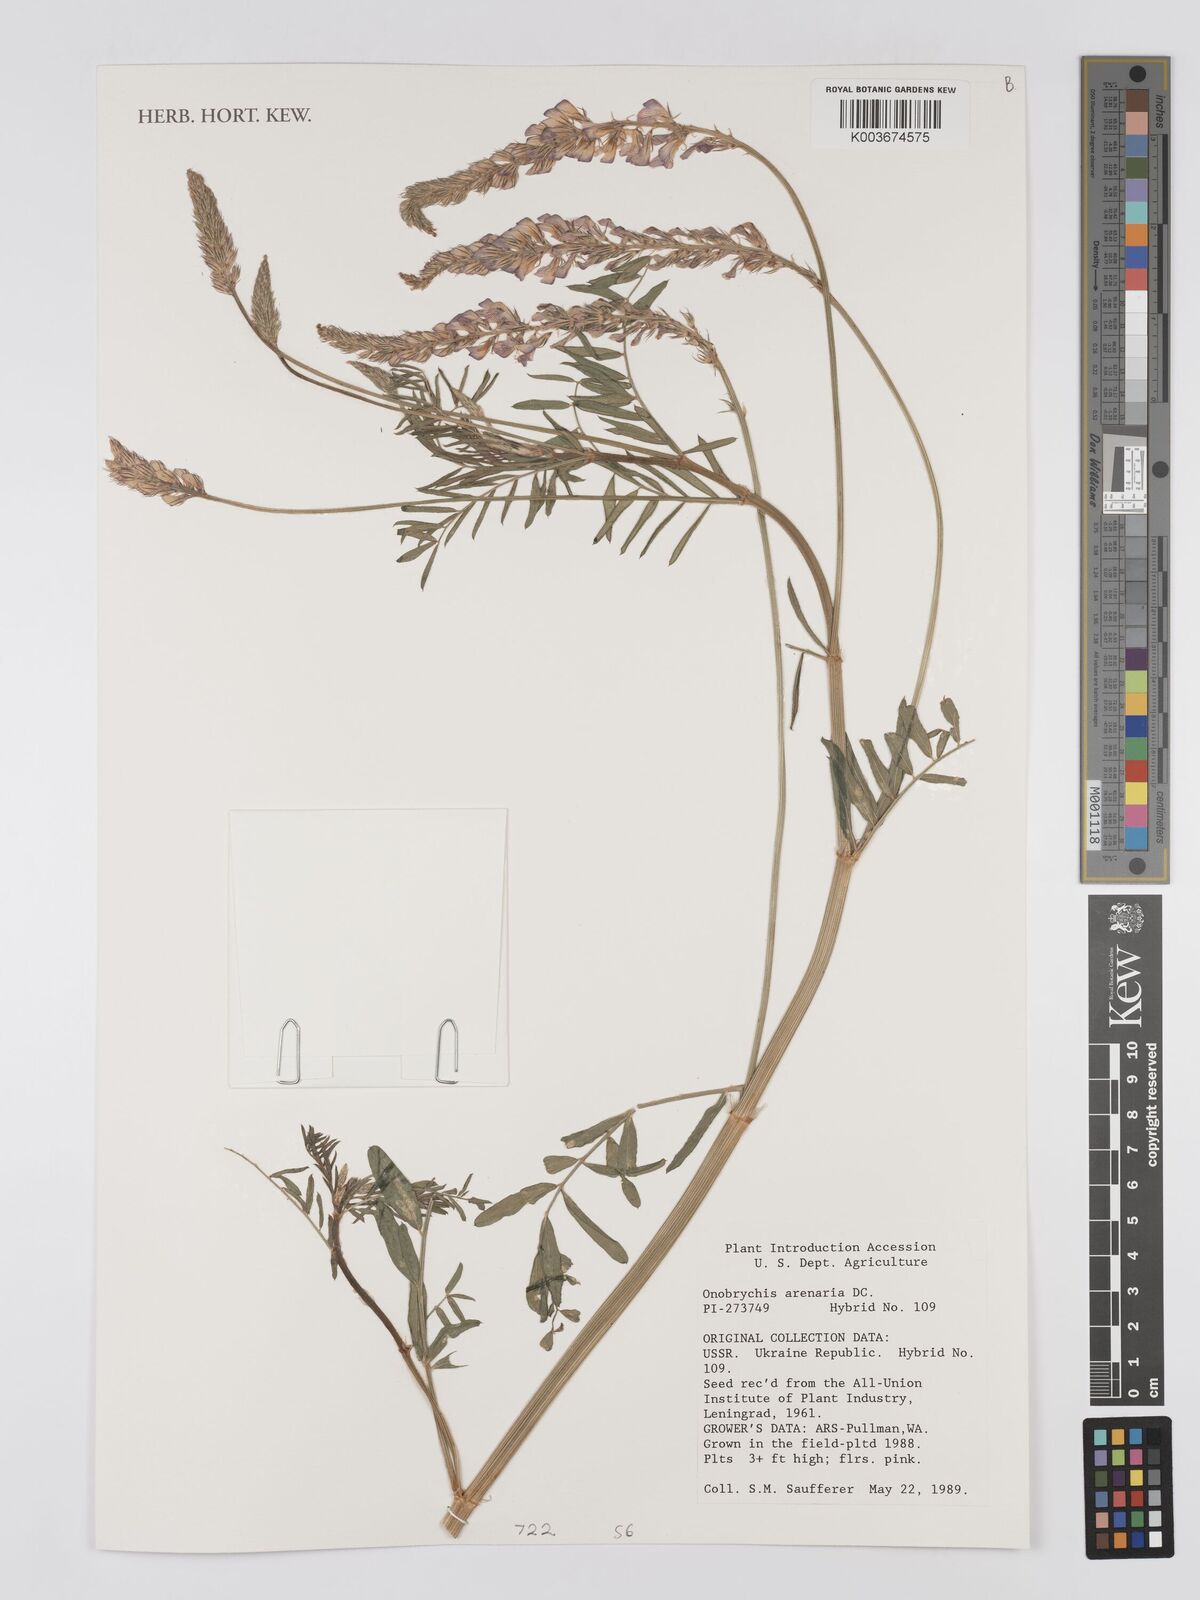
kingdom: Plantae
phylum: Tracheophyta
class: Magnoliopsida
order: Fabales
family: Fabaceae
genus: Onobrychis
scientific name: Onobrychis
